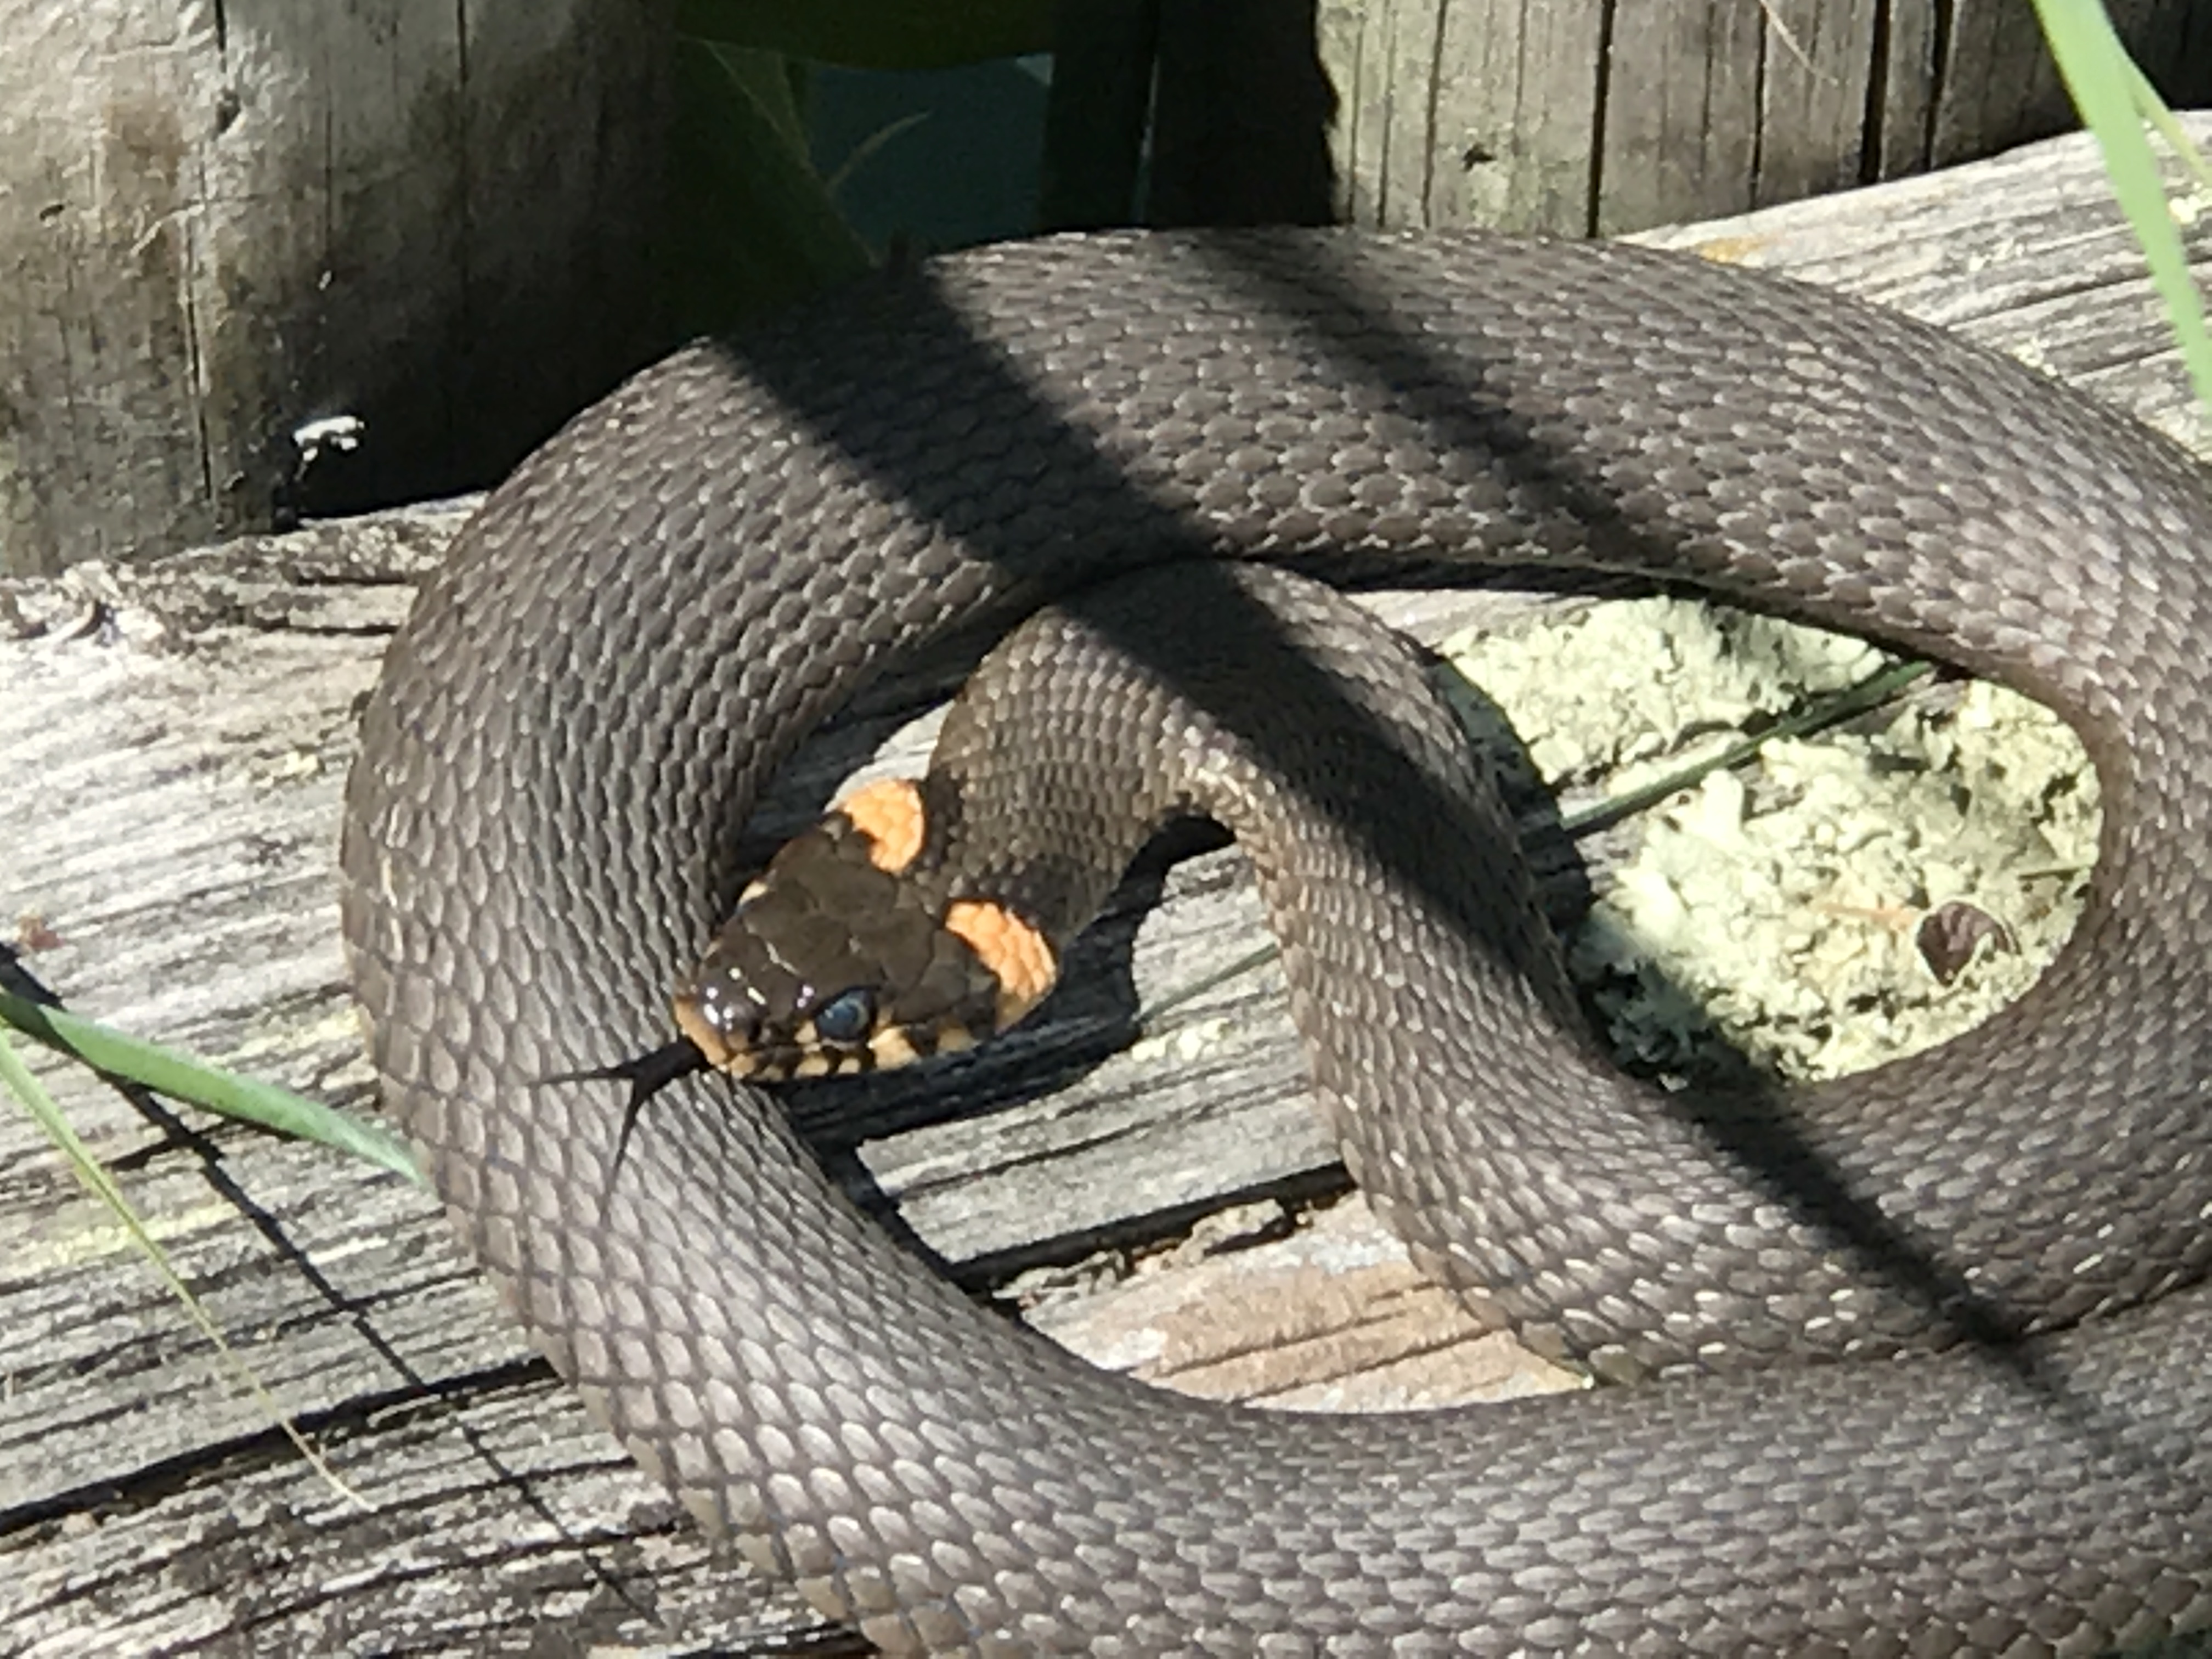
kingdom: Animalia
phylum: Chordata
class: Squamata
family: Colubridae
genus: Natrix
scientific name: Natrix natrix
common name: Grass snake
